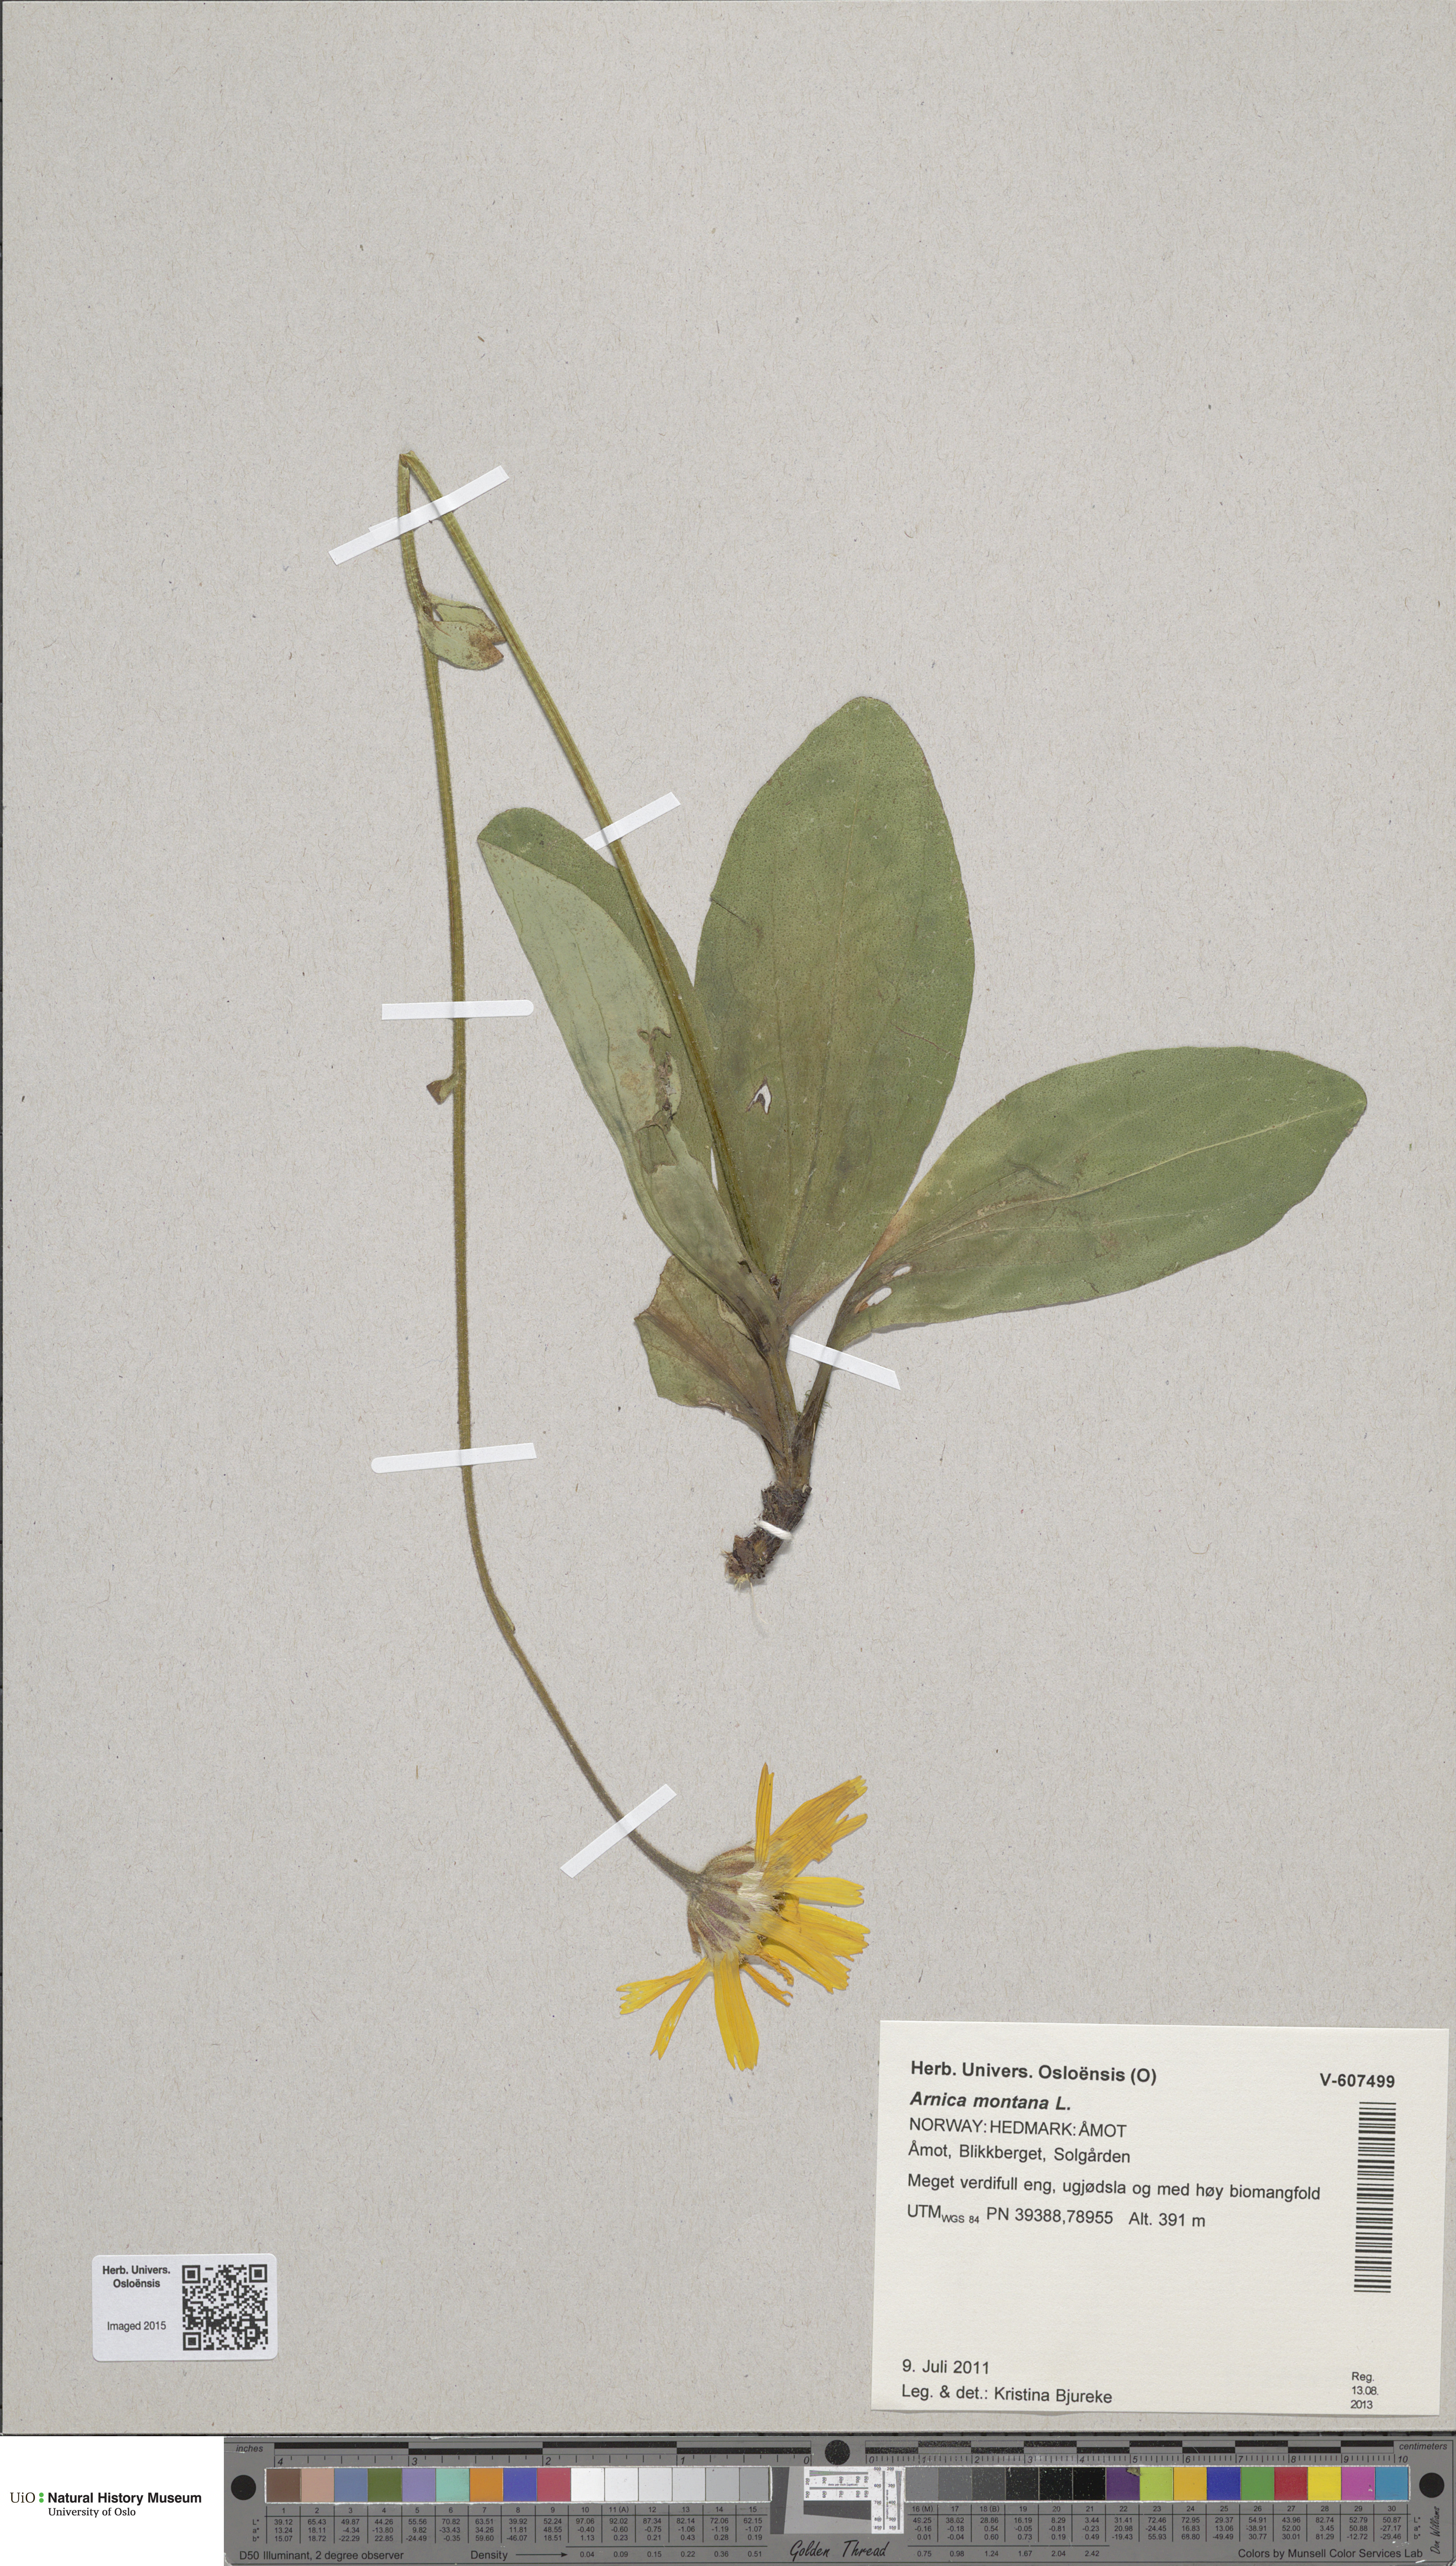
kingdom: Plantae
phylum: Tracheophyta
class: Magnoliopsida
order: Asterales
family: Asteraceae
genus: Arnica
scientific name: Arnica montana
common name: Leopard's bane
